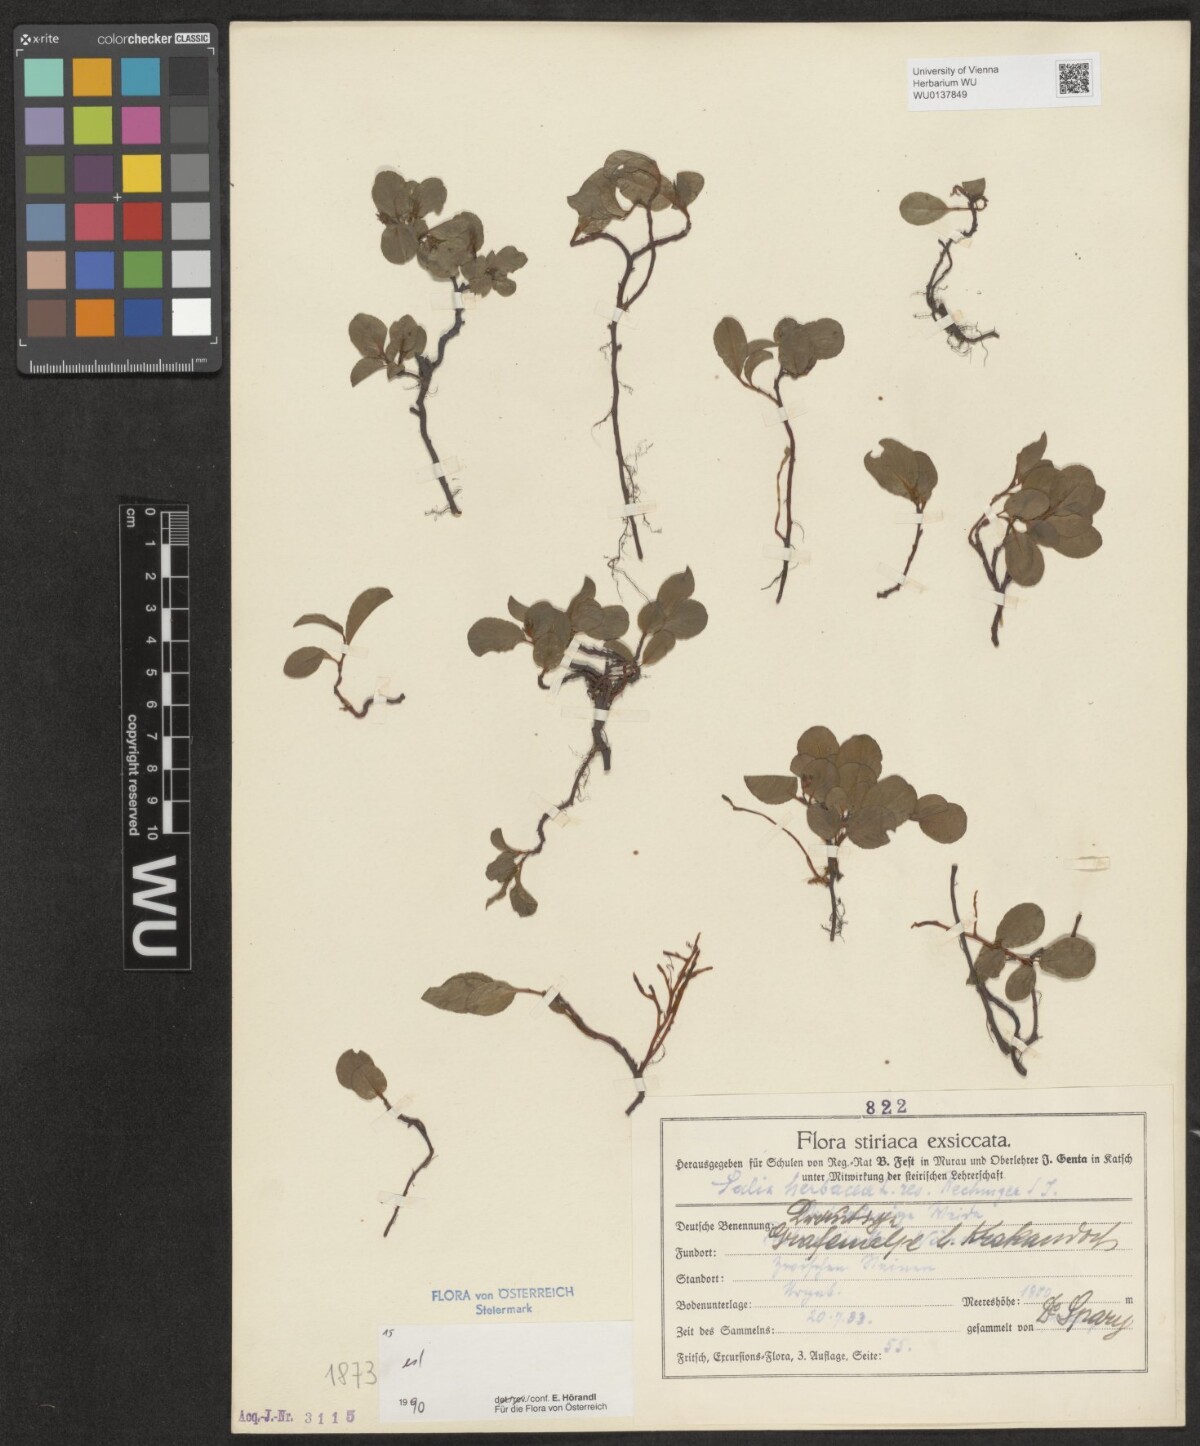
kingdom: Plantae
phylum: Tracheophyta
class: Magnoliopsida
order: Malpighiales
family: Salicaceae
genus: Salix
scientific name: Salix herbacea
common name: Dwarf willow
